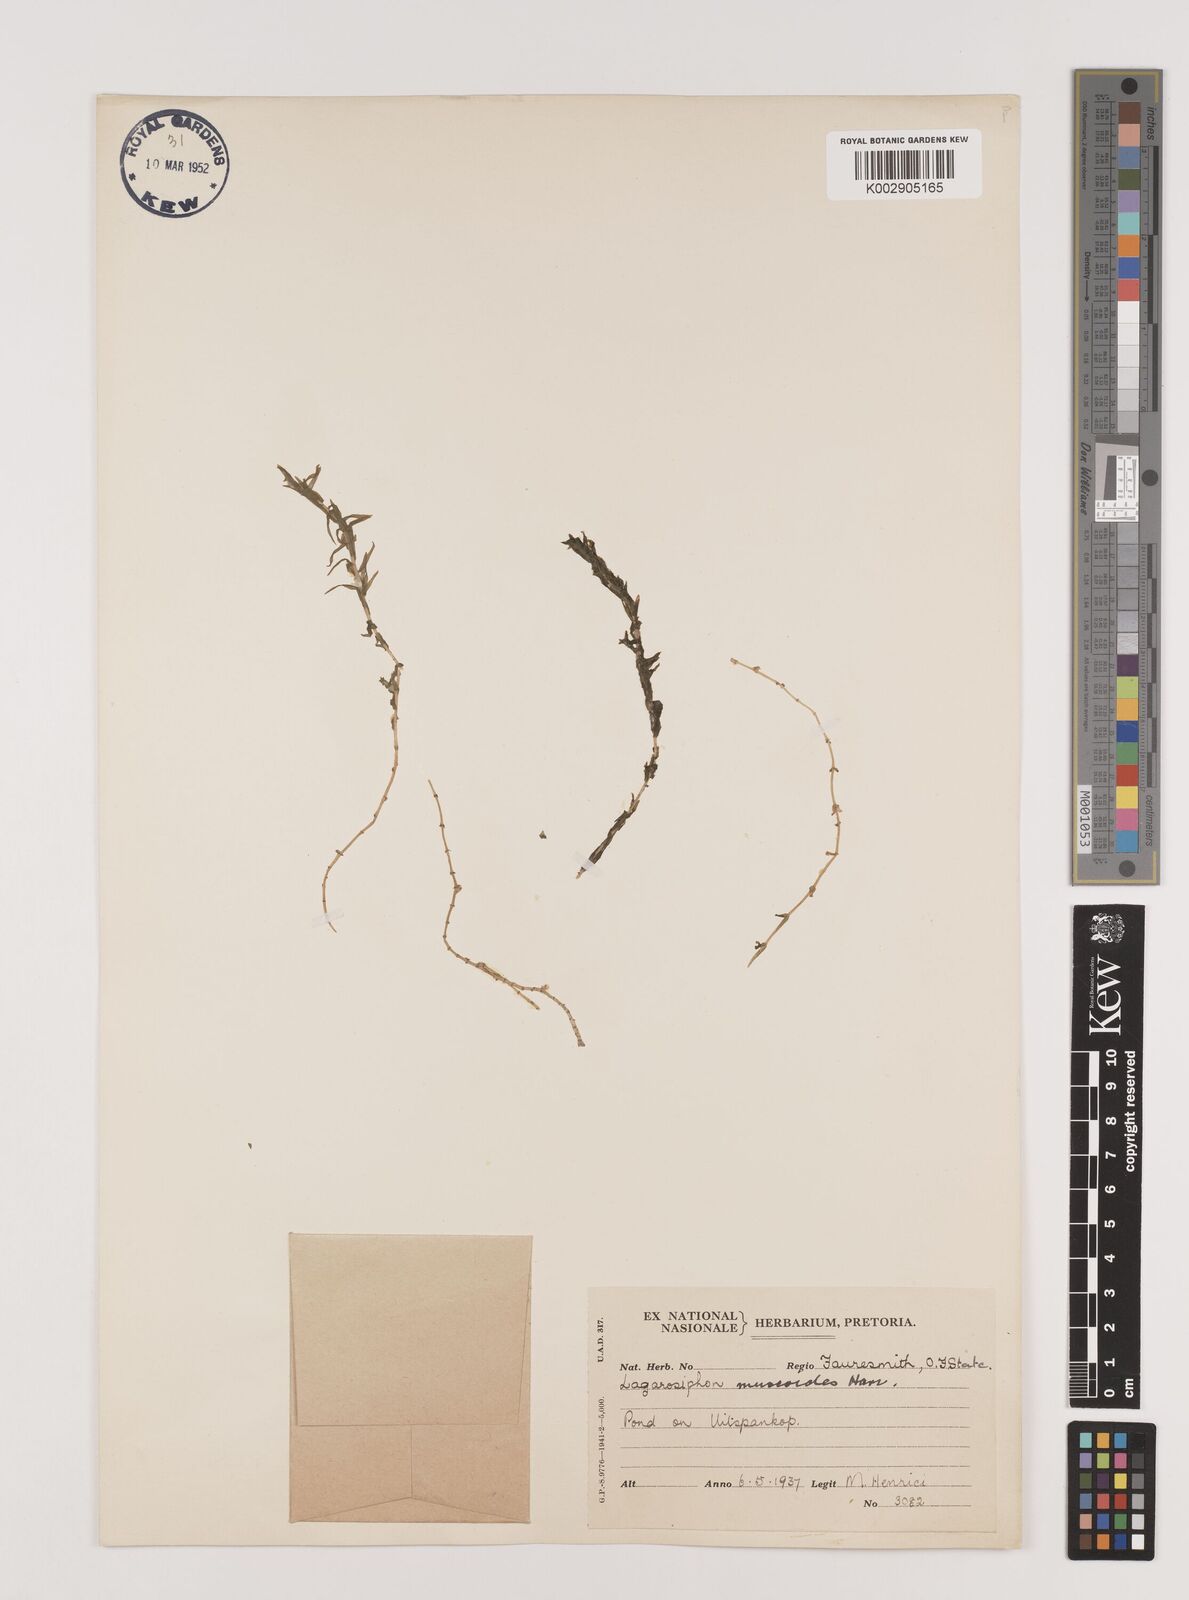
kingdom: Plantae
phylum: Tracheophyta
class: Liliopsida
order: Alismatales
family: Hydrocharitaceae
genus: Lagarosiphon
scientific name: Lagarosiphon muscoides
